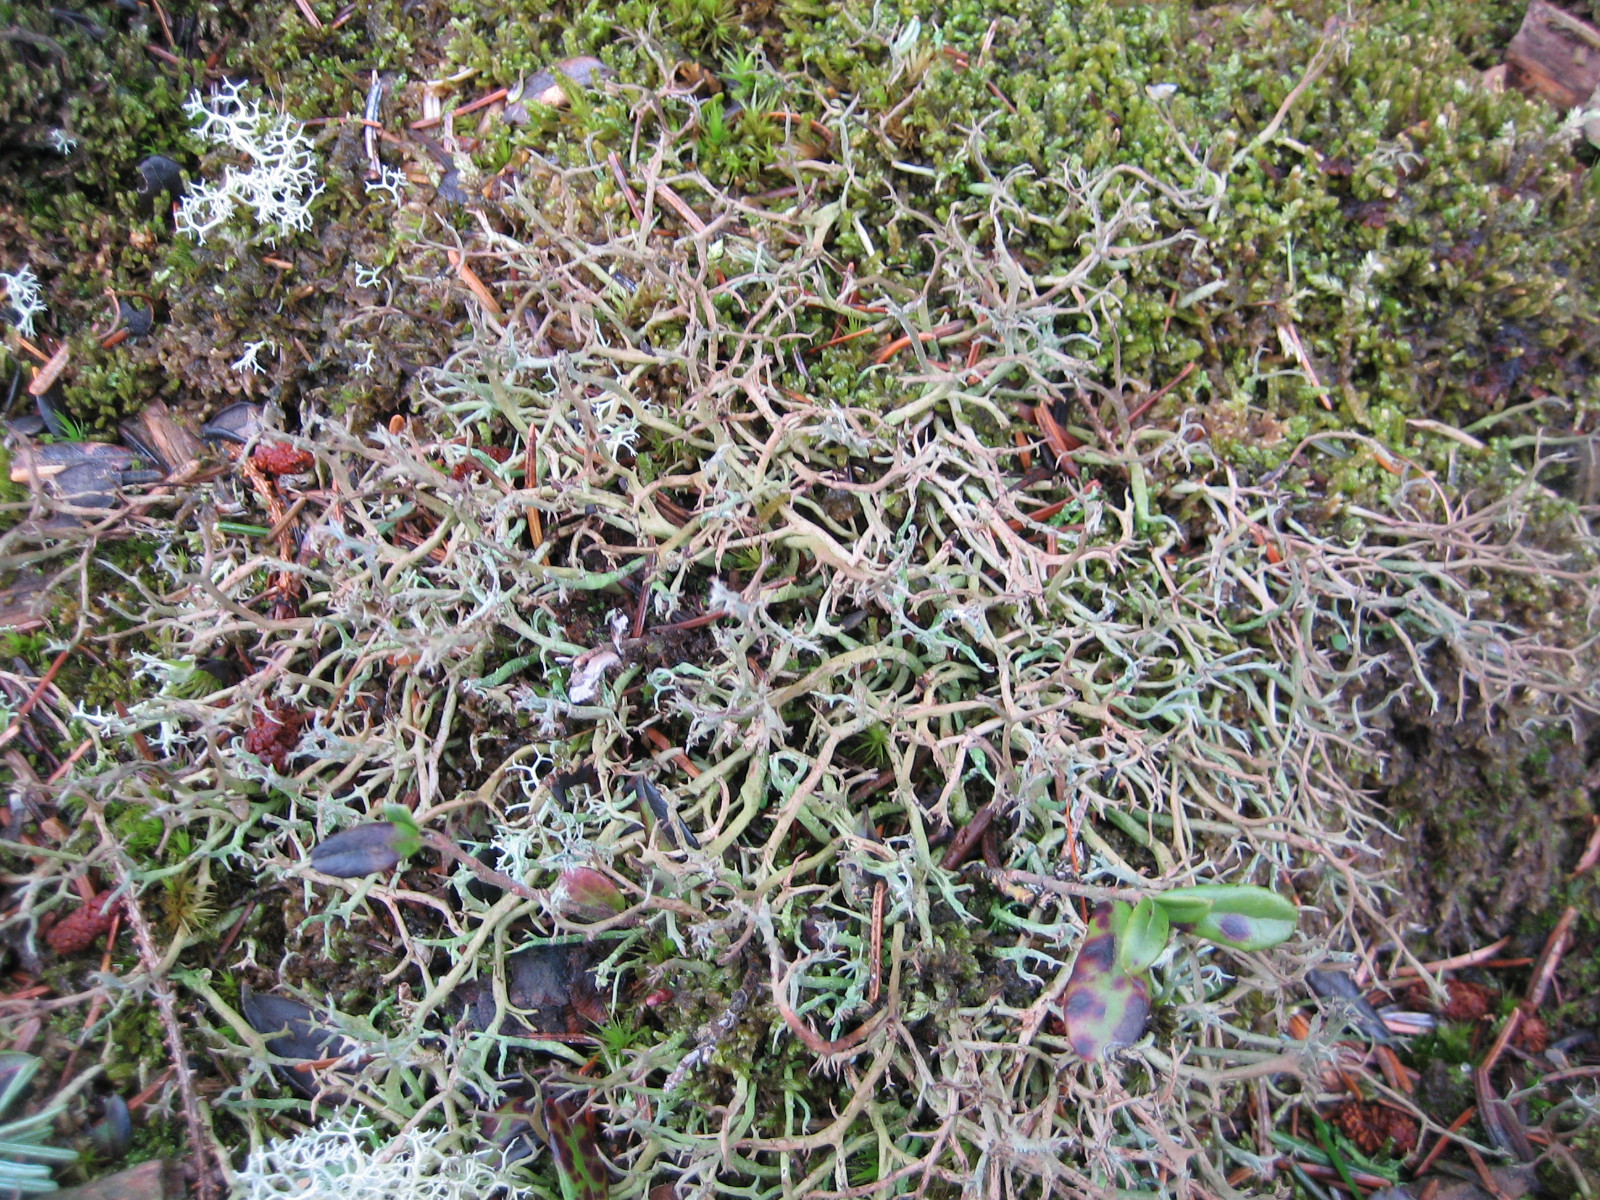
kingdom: Fungi
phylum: Ascomycota
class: Lecanoromycetes
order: Lecanorales
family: Cladoniaceae
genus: Cladonia
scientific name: Cladonia furcata
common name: kløftet bægerlav
